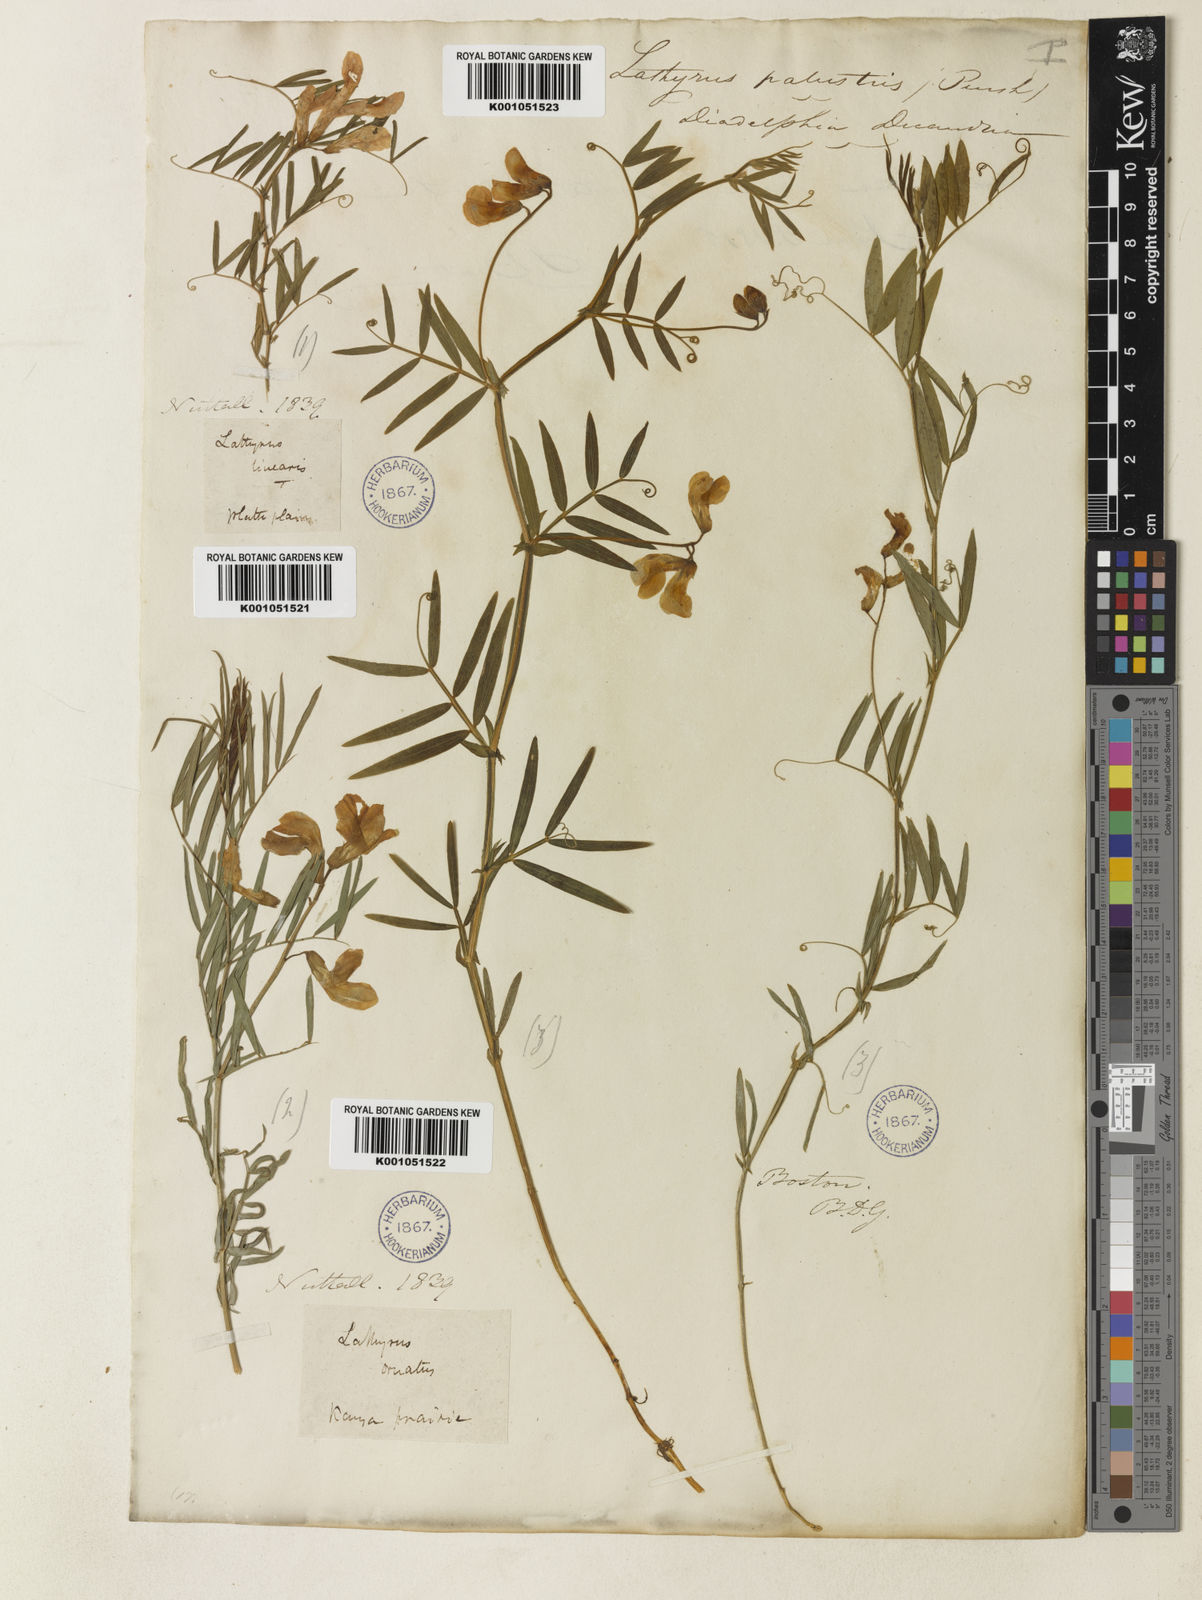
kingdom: Plantae
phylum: Tracheophyta
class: Magnoliopsida
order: Fabales
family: Fabaceae
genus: Lathyrus
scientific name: Lathyrus decaphyllus
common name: Prairie vetchling
